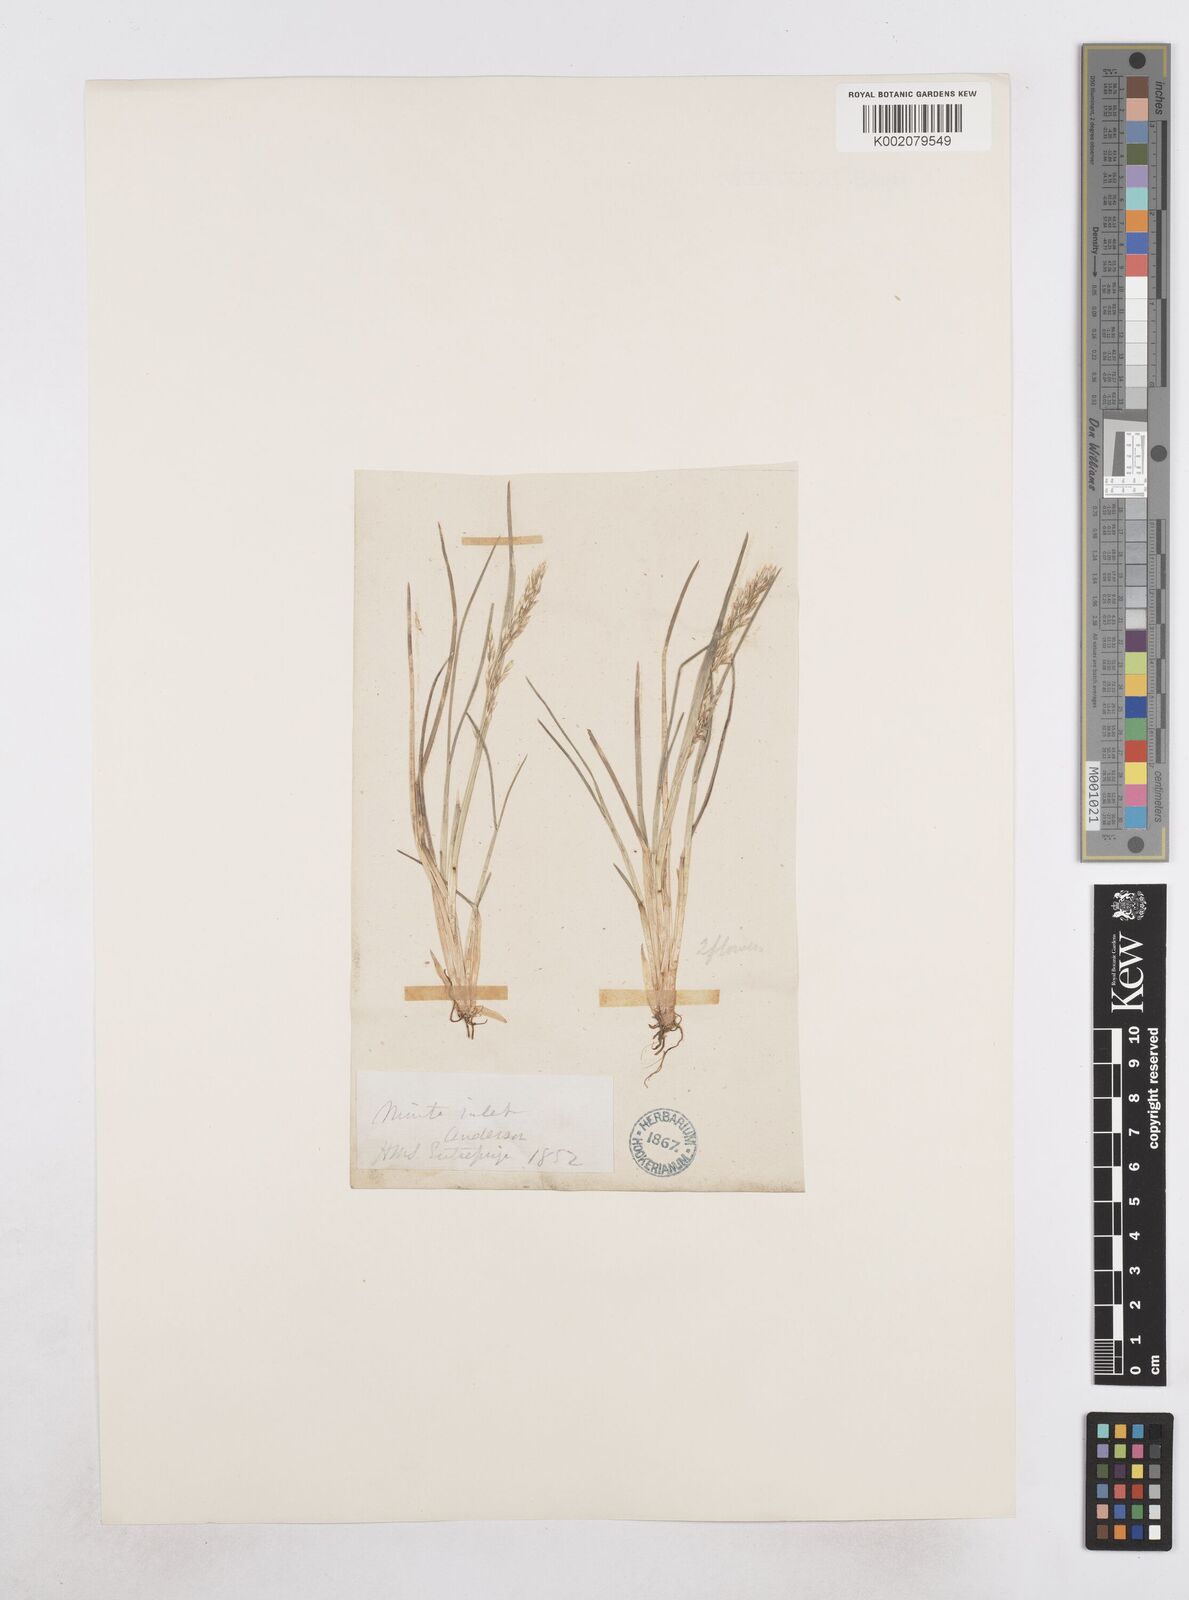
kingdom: Plantae
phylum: Tracheophyta
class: Liliopsida
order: Poales
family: Poaceae
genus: Dupontia
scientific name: Dupontia fulva
